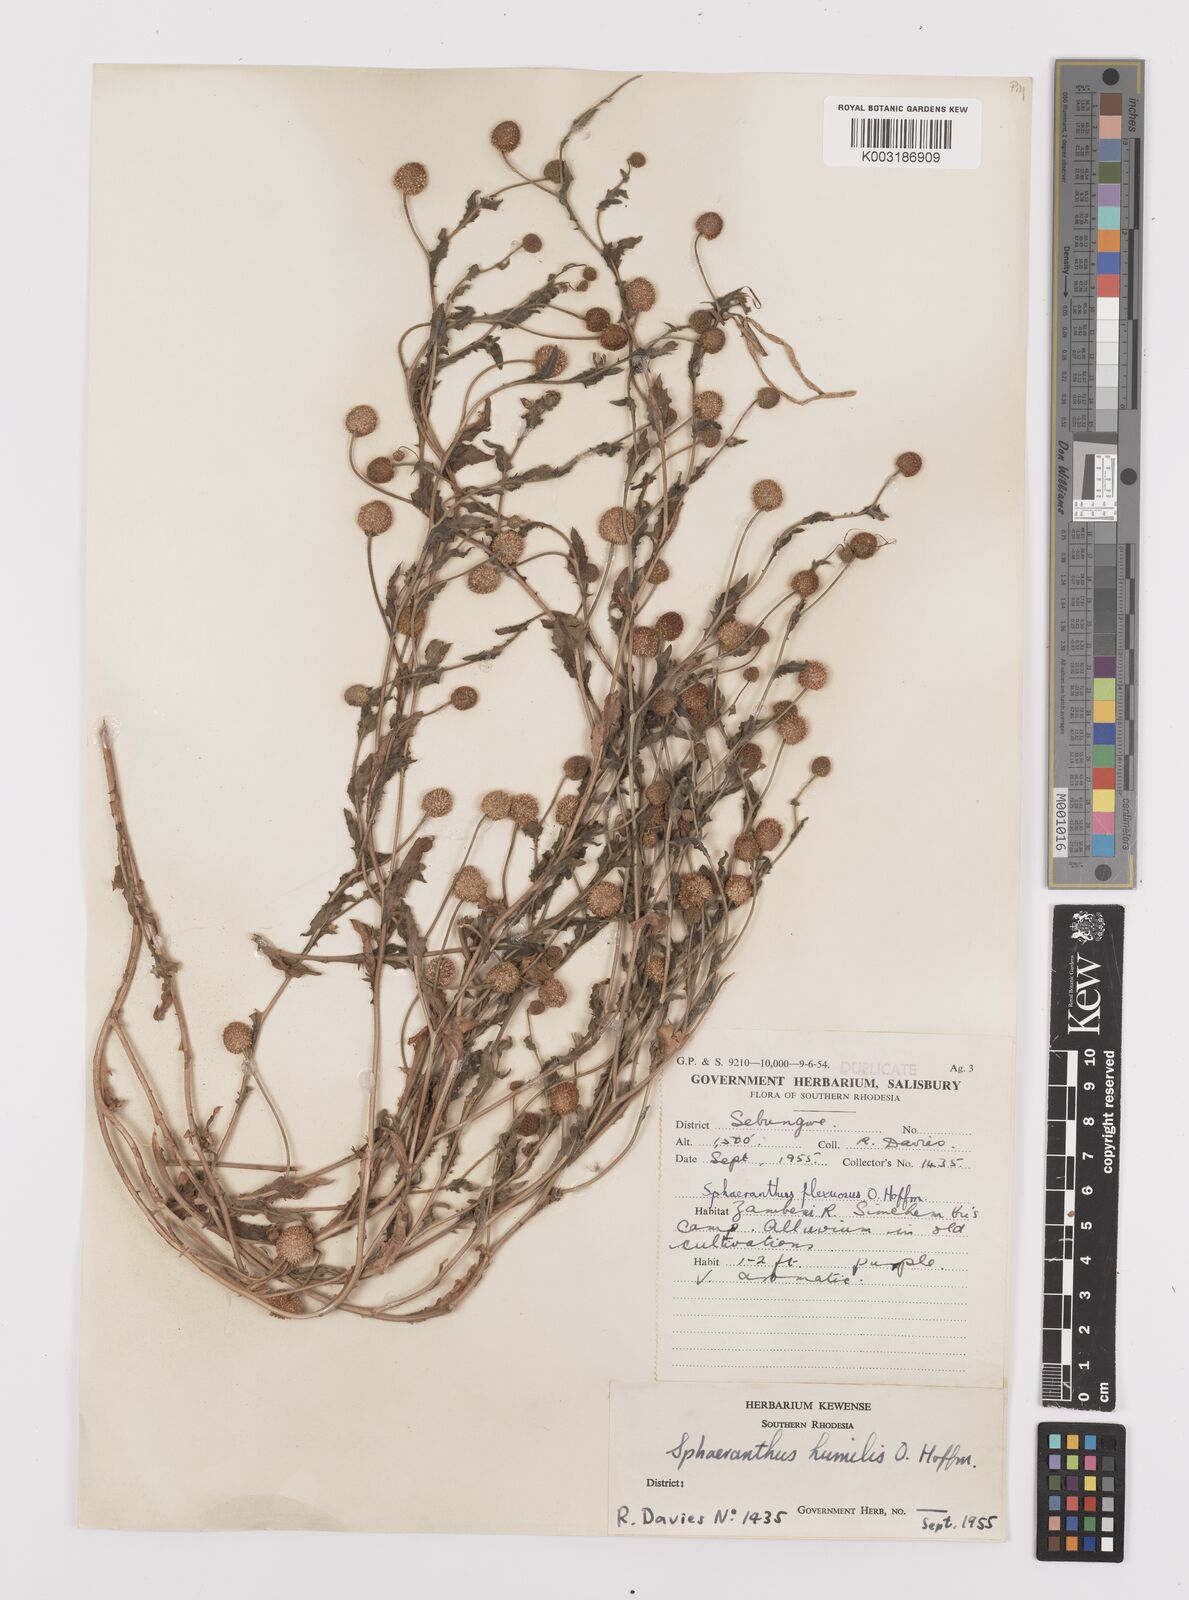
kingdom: Plantae
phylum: Tracheophyta
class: Magnoliopsida
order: Asterales
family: Asteraceae
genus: Sphaeranthus
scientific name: Sphaeranthus flexuosus
